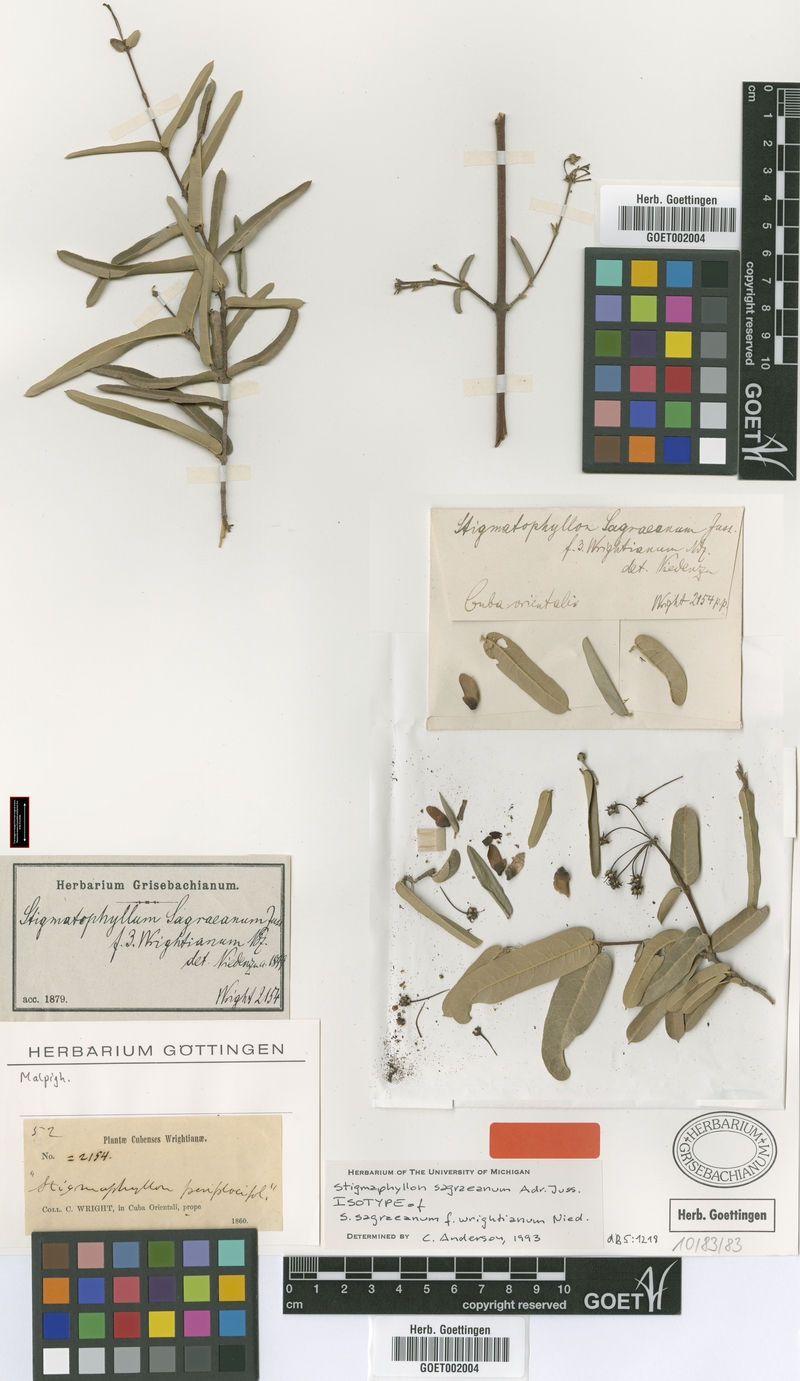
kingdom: Plantae
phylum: Tracheophyta
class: Magnoliopsida
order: Malpighiales
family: Malpighiaceae
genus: Stigmaphyllon
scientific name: Stigmaphyllon sagraeanum
